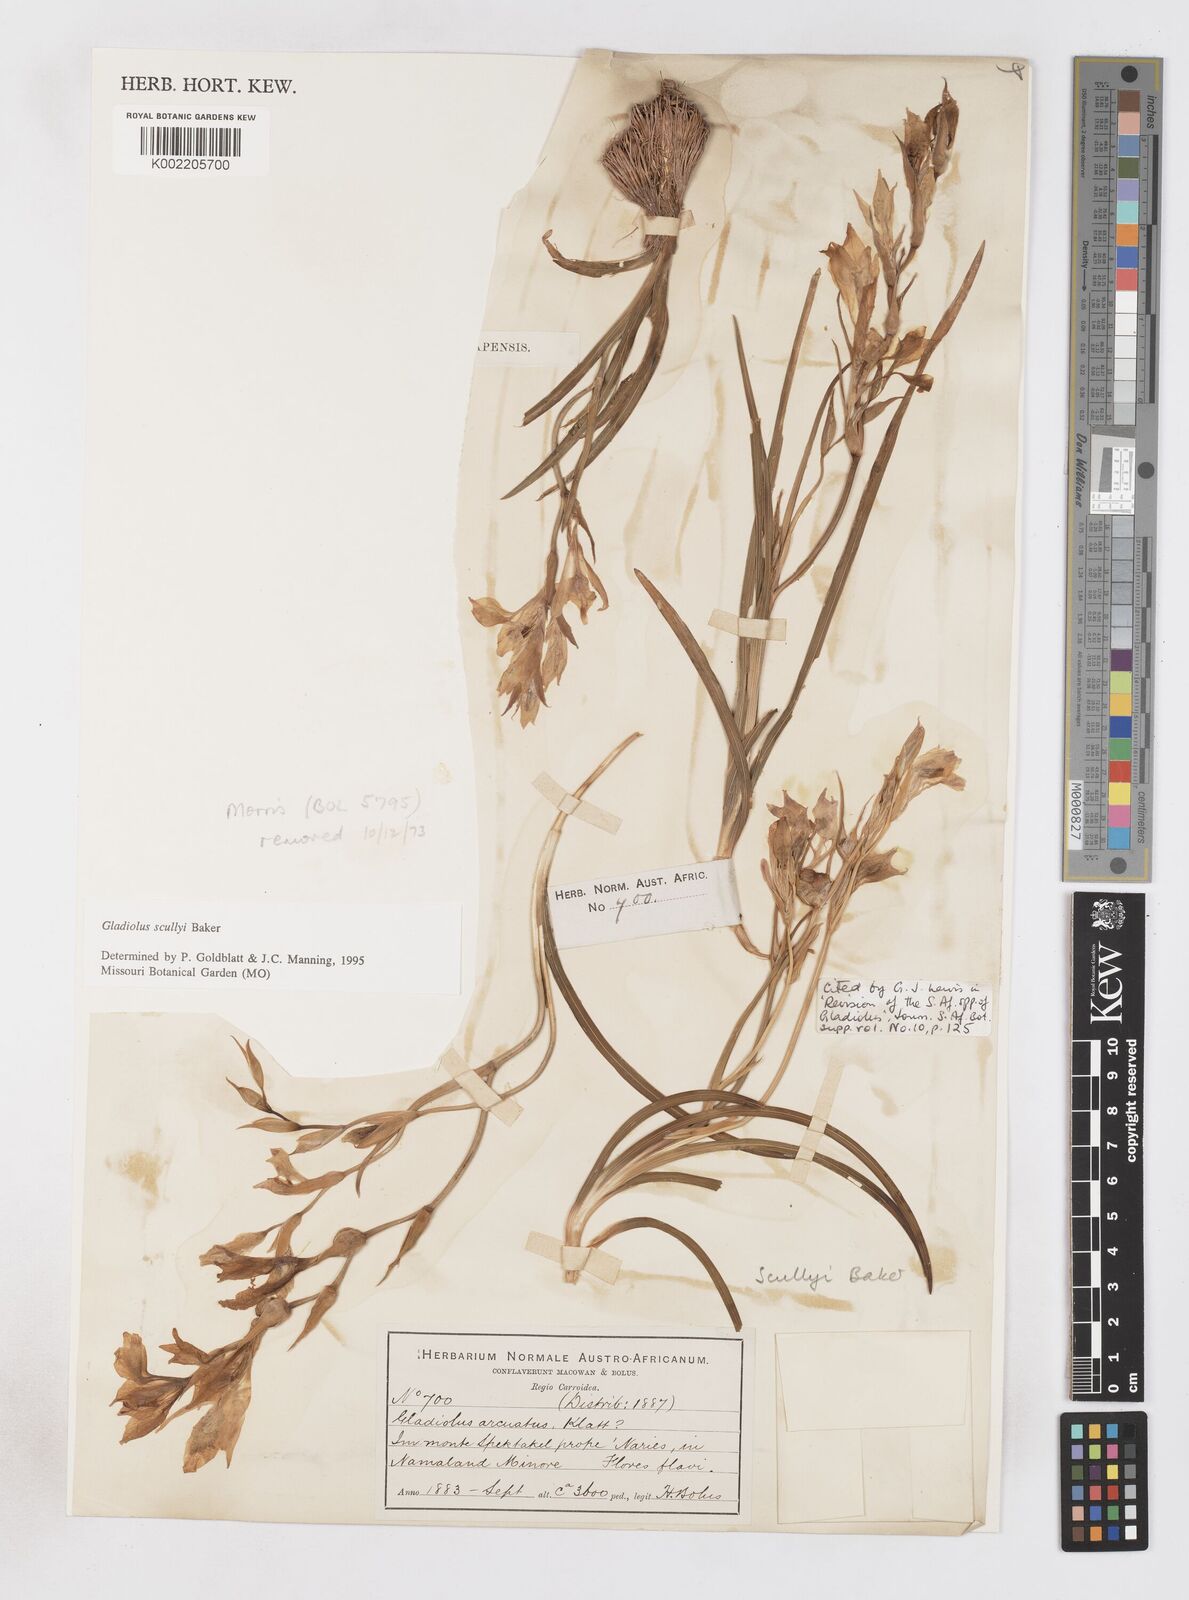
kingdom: Plantae
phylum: Tracheophyta
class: Liliopsida
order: Asparagales
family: Iridaceae
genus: Gladiolus
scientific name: Gladiolus scullyi
